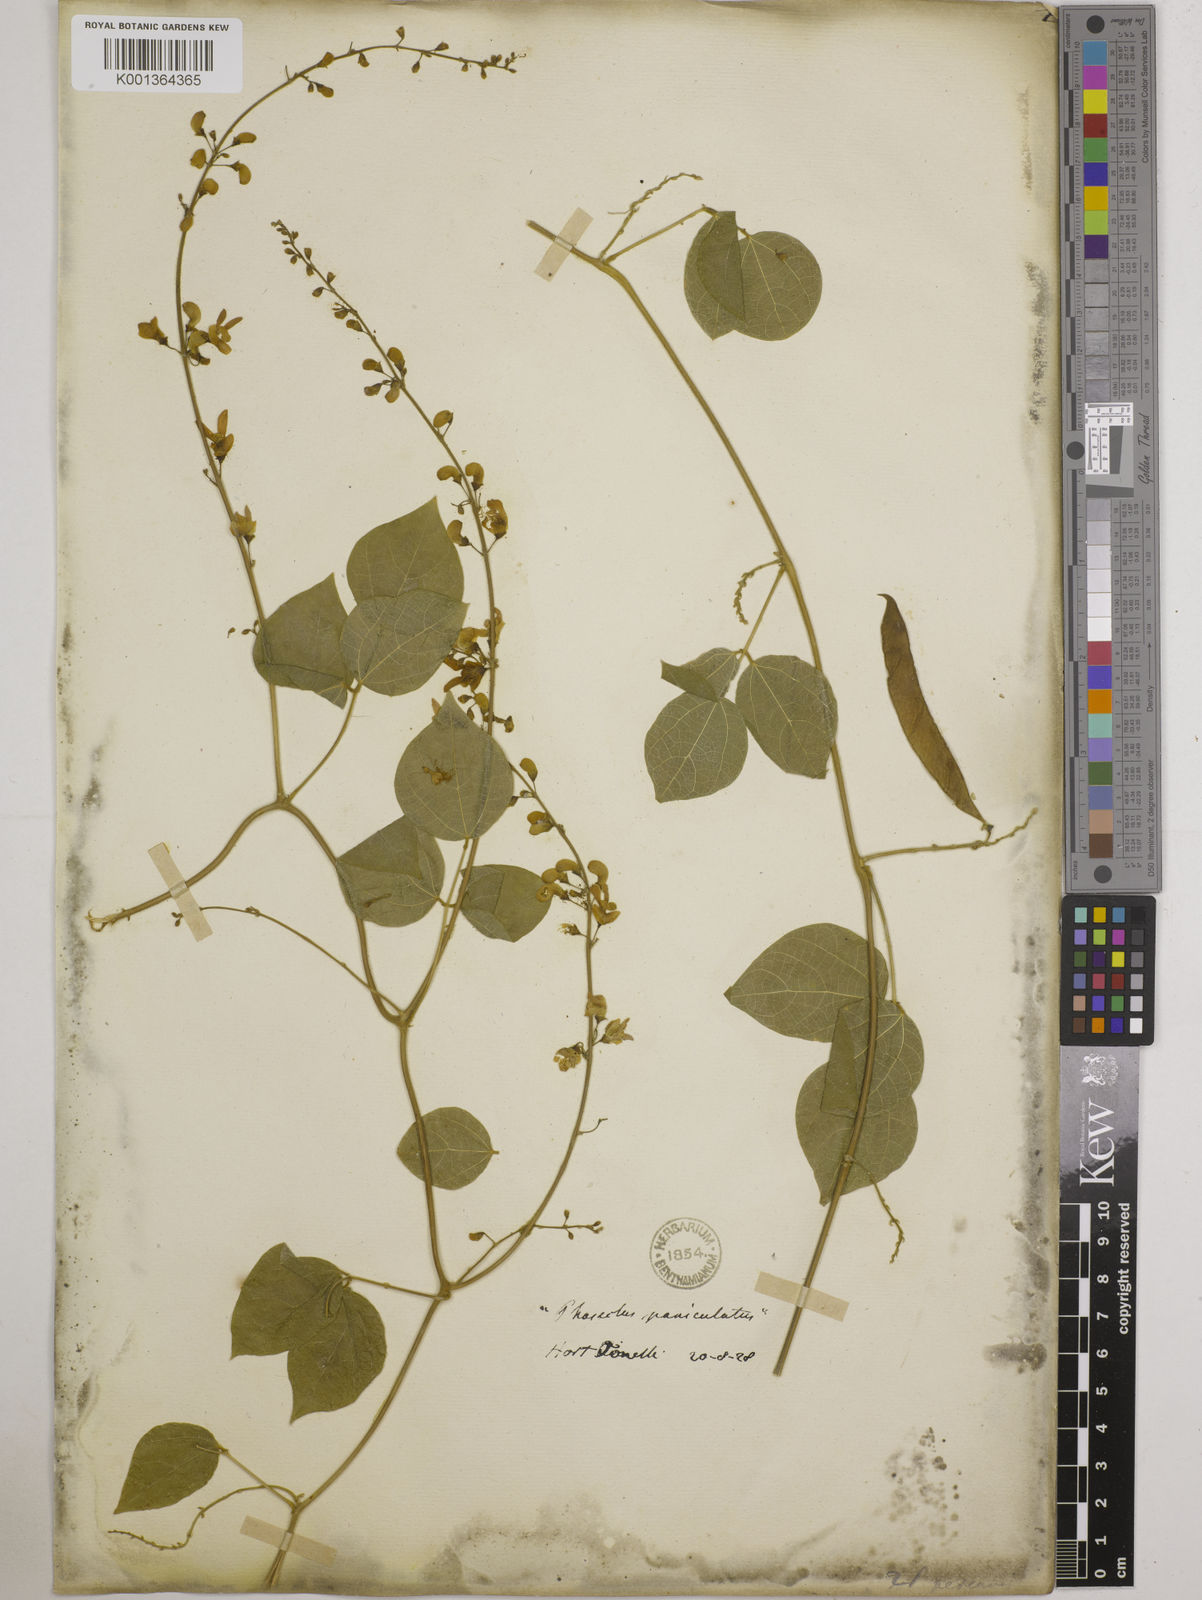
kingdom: Plantae
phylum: Tracheophyta
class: Magnoliopsida
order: Fabales
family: Fabaceae
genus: Phaseolus
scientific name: Phaseolus
